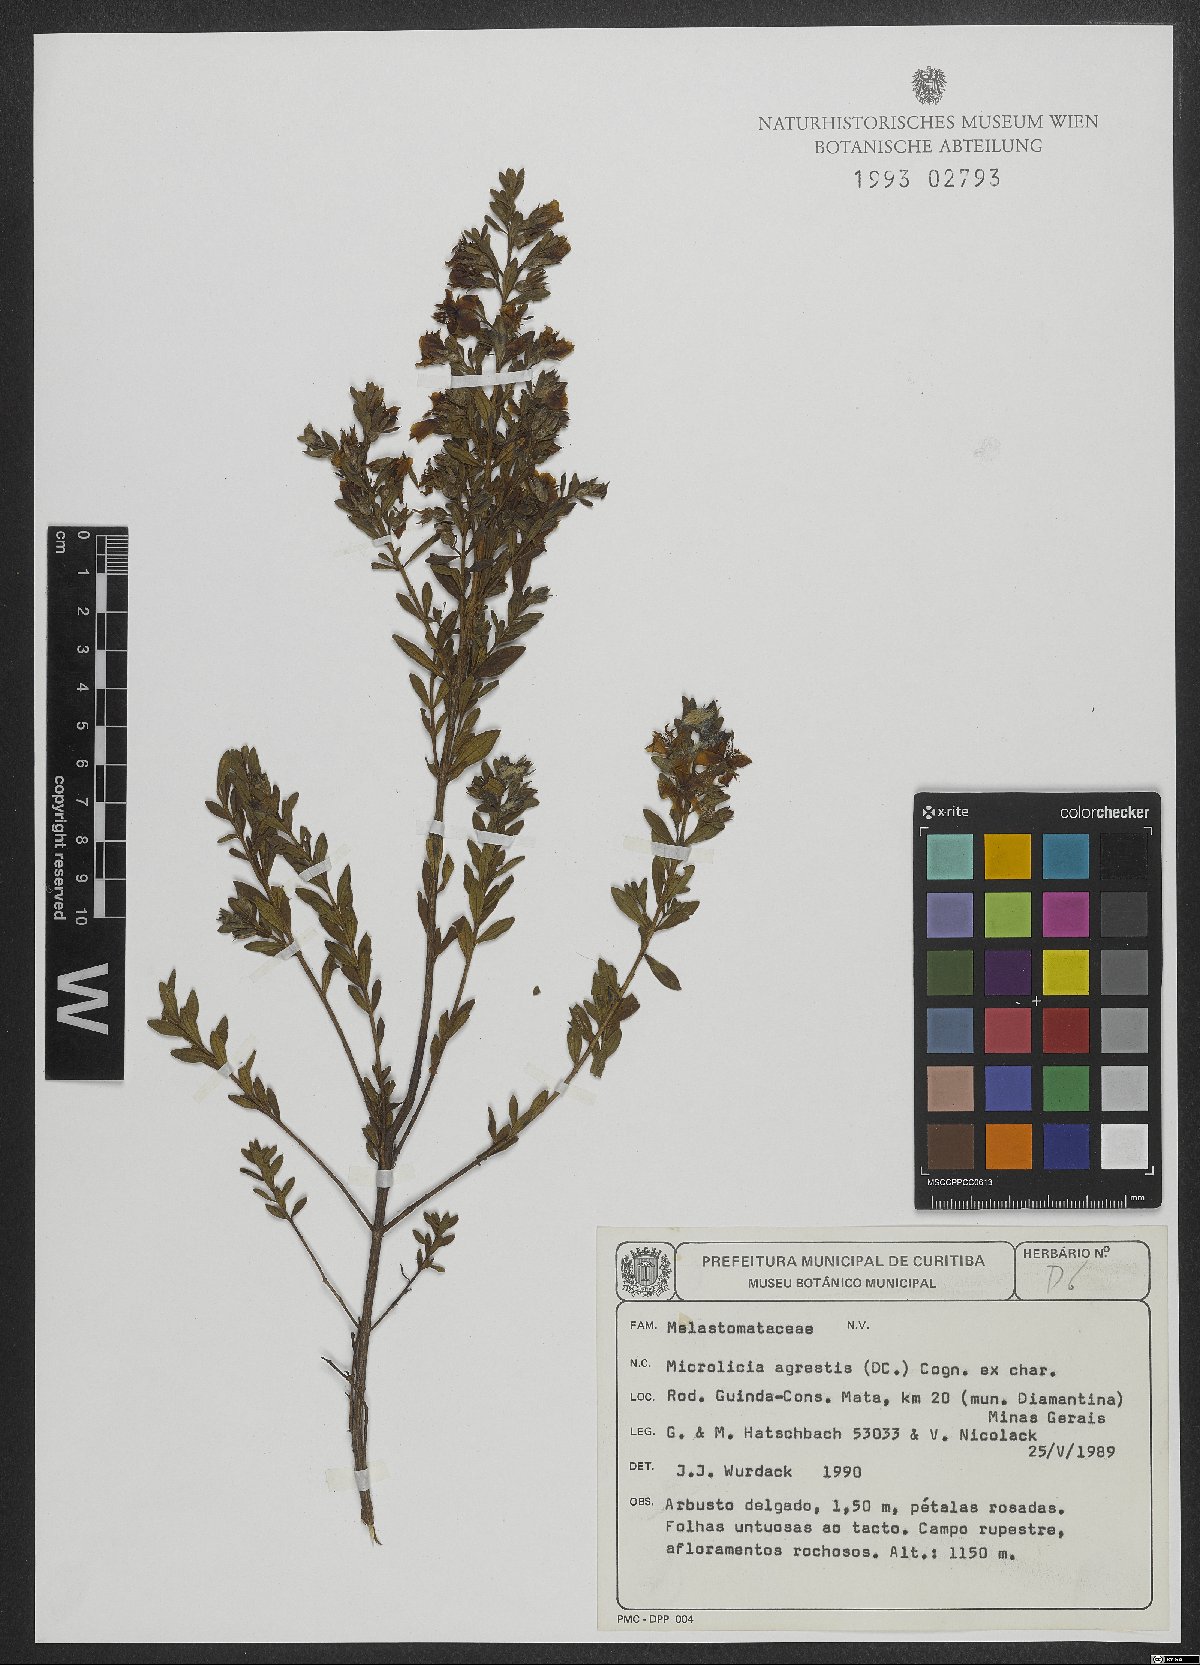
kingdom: Plantae
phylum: Tracheophyta
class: Magnoliopsida
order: Myrtales
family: Melastomataceae
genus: Microlicia
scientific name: Microlicia agrestis
